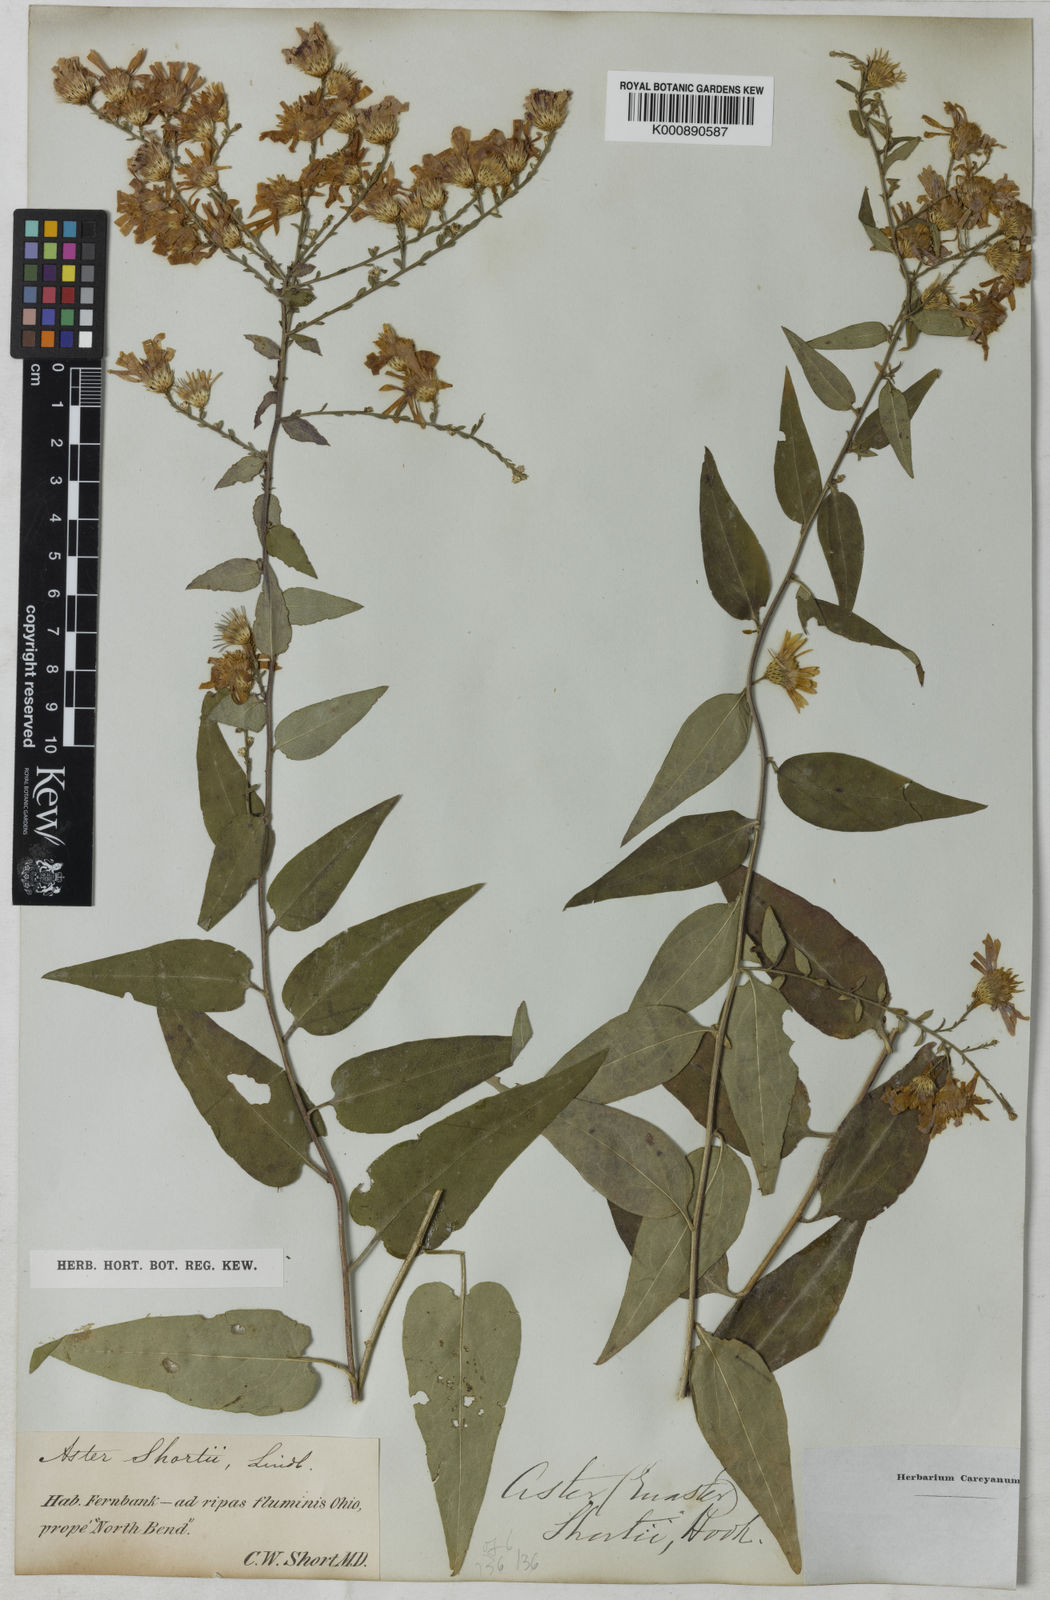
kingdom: Plantae
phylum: Tracheophyta
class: Magnoliopsida
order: Asterales
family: Asteraceae
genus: Aster
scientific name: Aster shortii
